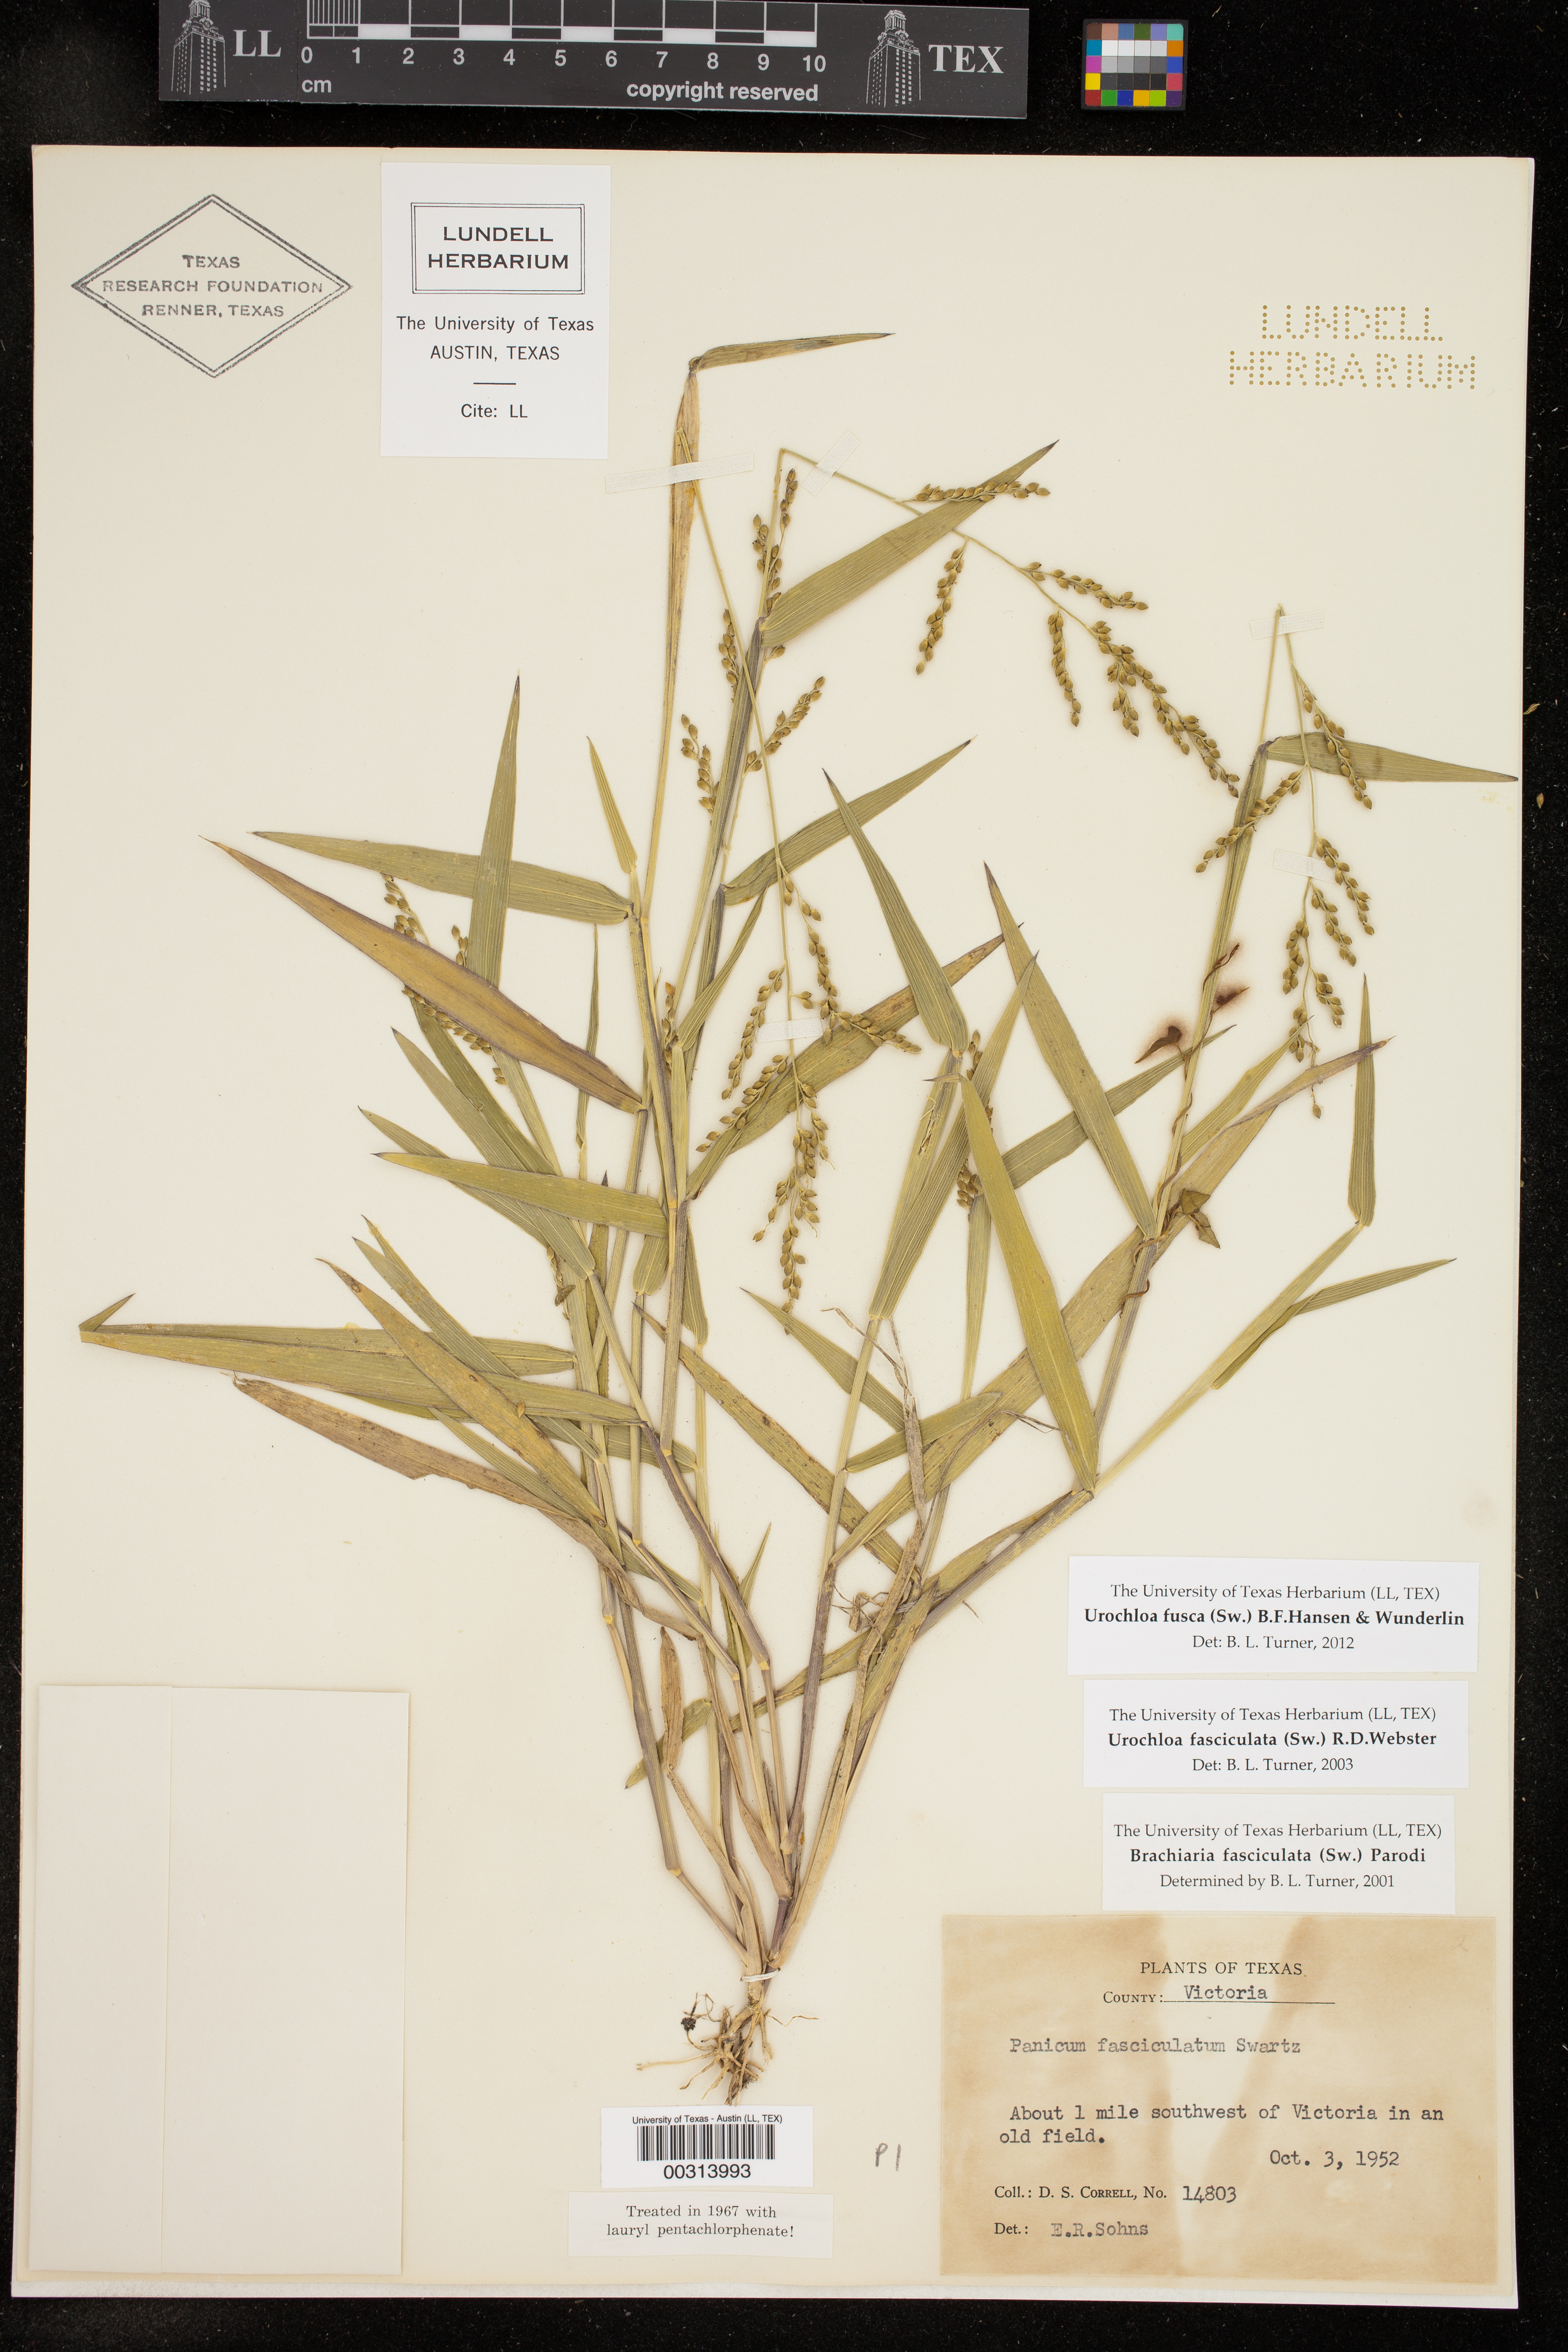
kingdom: Plantae
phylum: Tracheophyta
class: Liliopsida
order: Poales
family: Poaceae
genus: Urochloa
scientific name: Urochloa fusca
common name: Browntop signal grass
